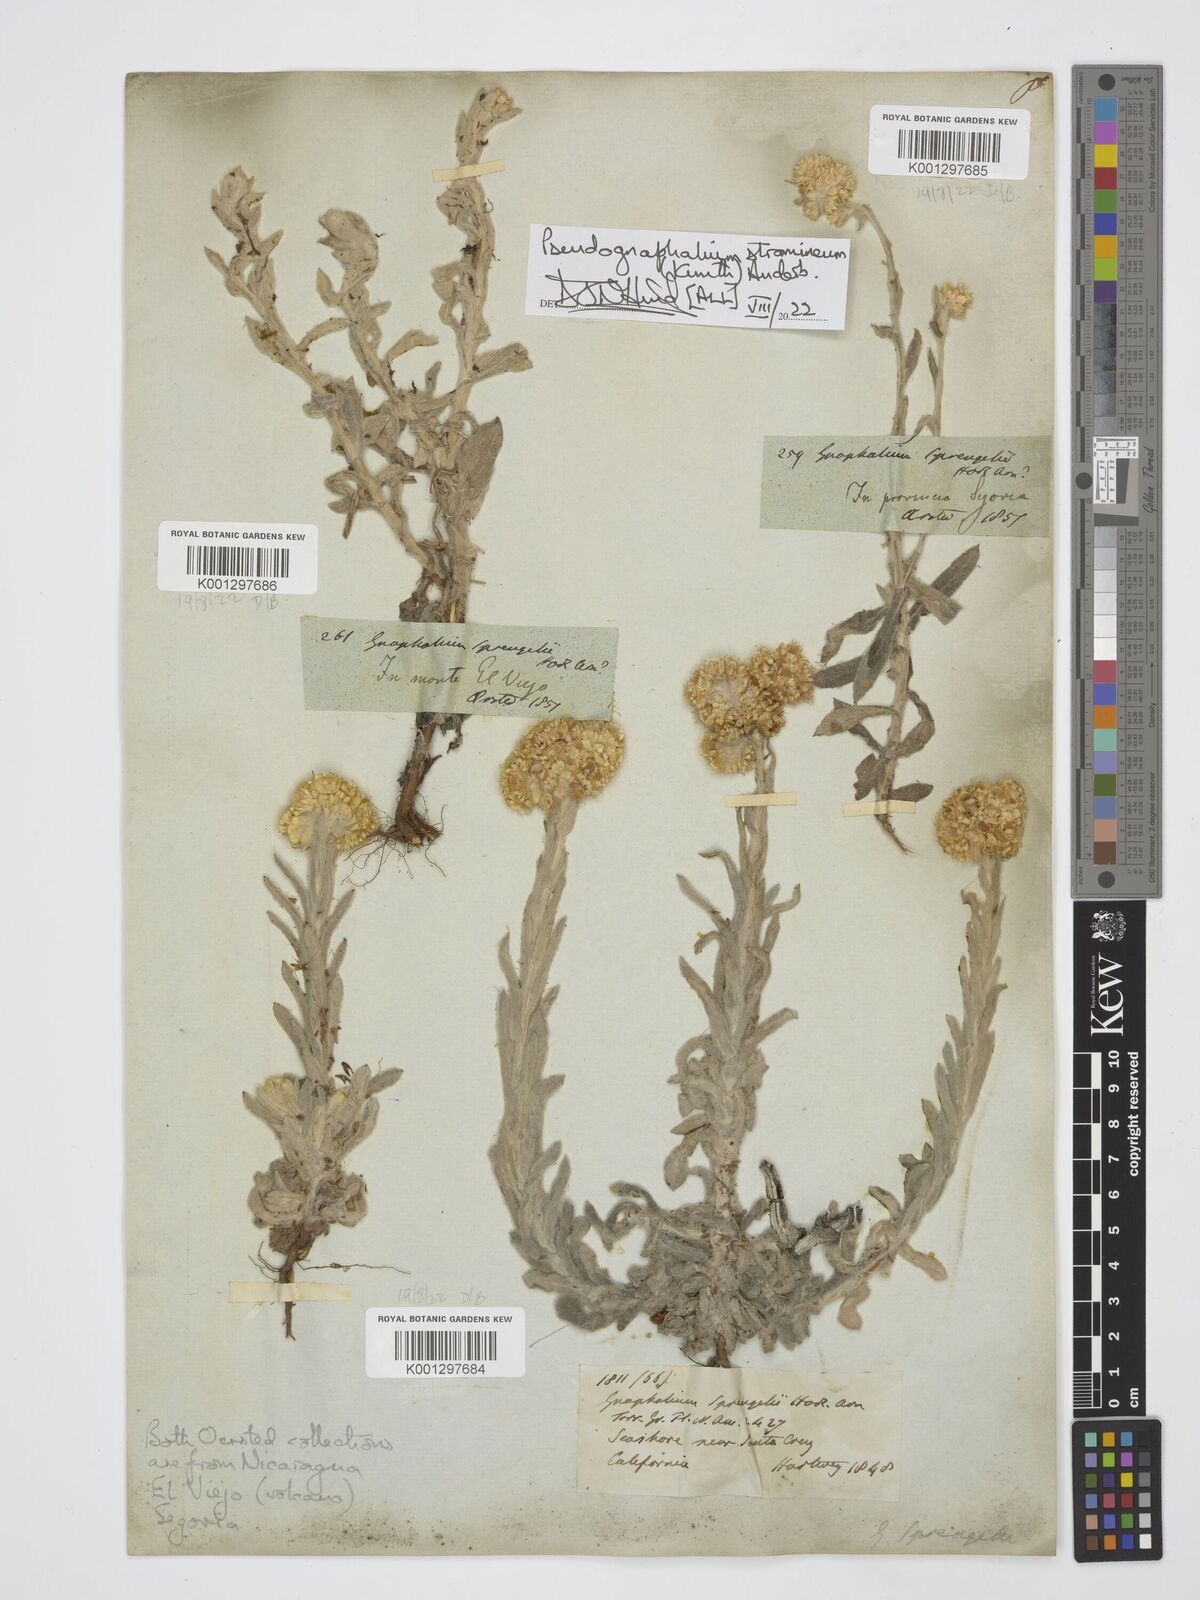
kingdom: Plantae
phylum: Tracheophyta
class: Magnoliopsida
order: Asterales
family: Asteraceae
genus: Pseudognaphalium
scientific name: Pseudognaphalium stramineum
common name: Cotton-batting-plant
